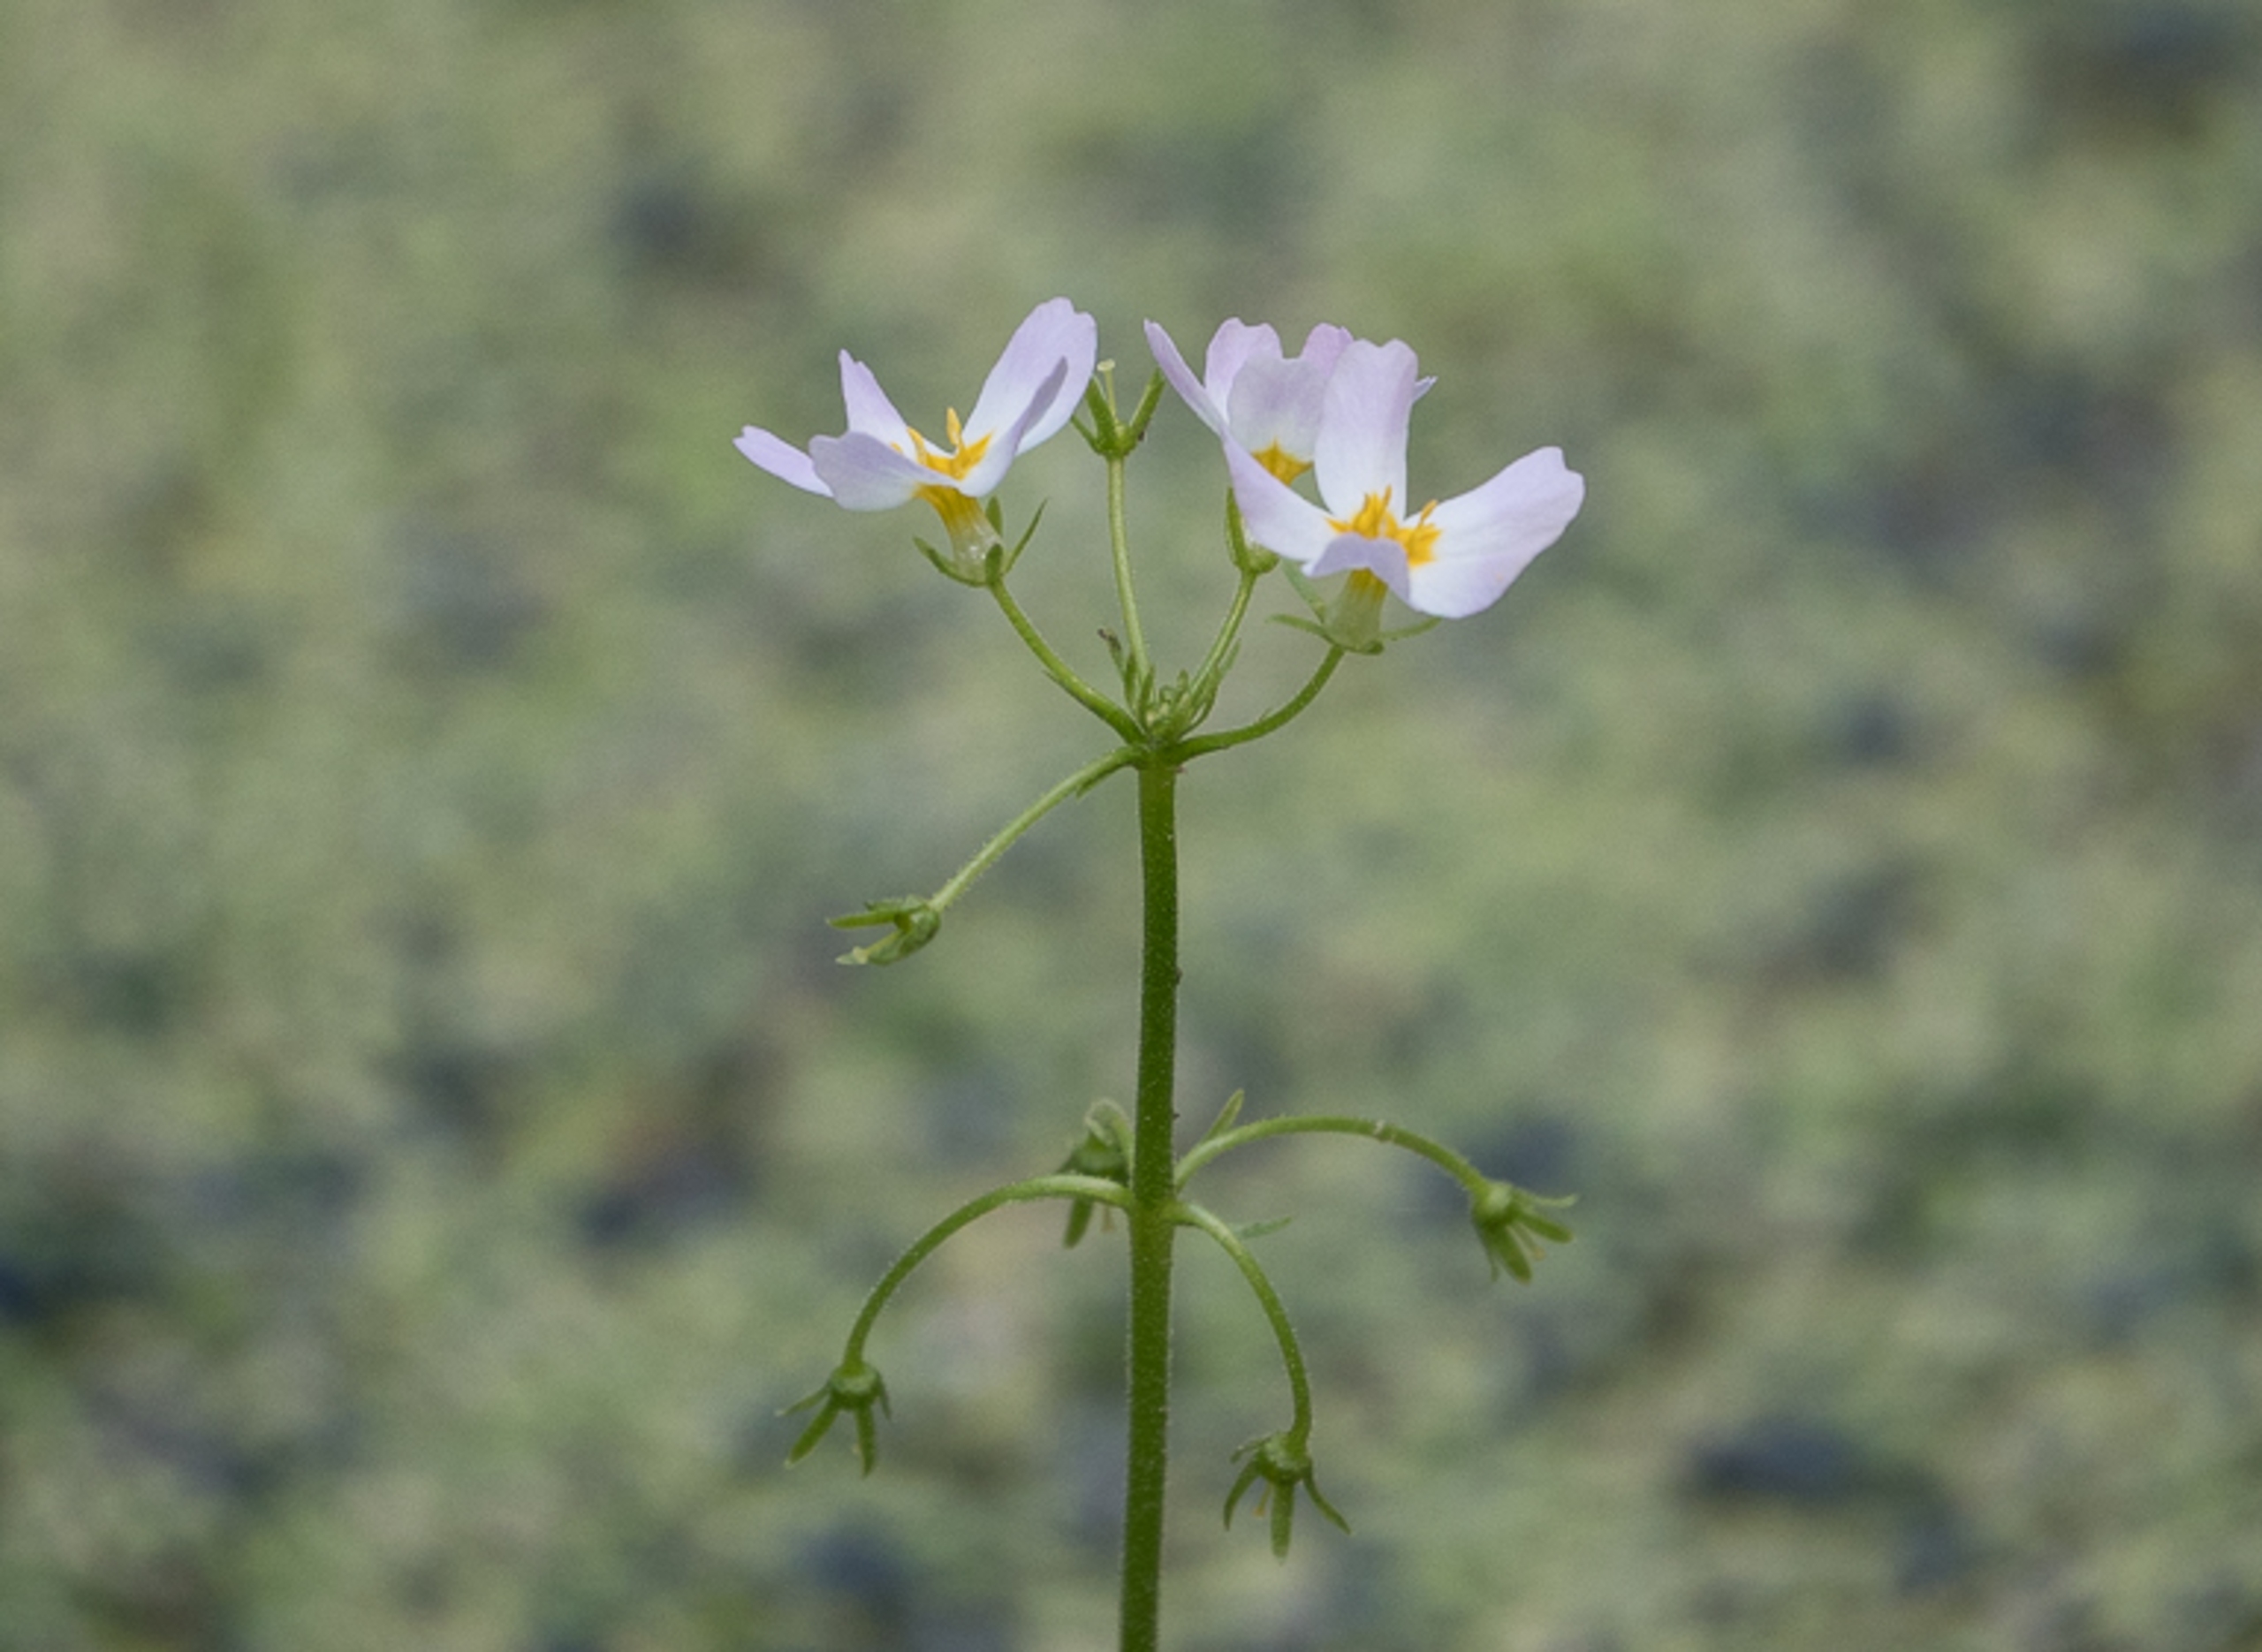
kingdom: Plantae
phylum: Tracheophyta
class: Magnoliopsida
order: Ericales
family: Primulaceae
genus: Hottonia
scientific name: Hottonia palustris
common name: Vandrøllike
